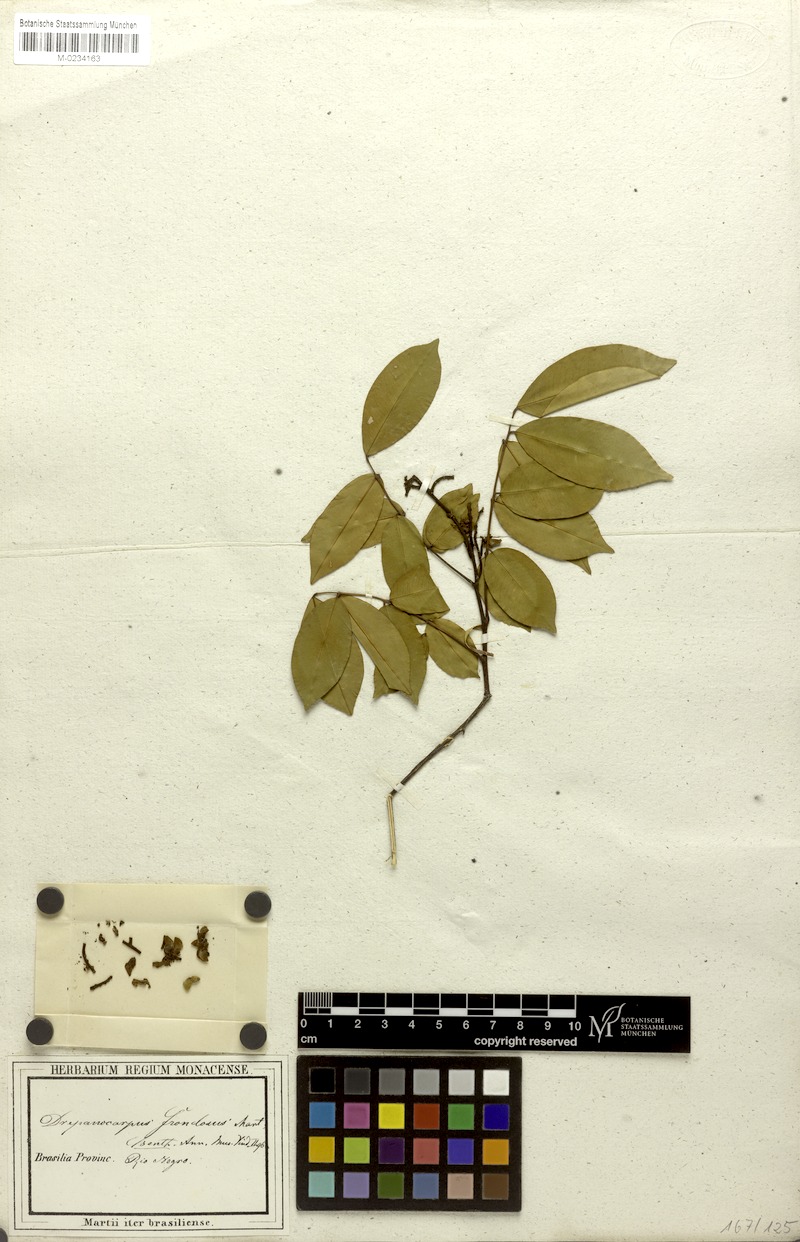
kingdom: Plantae
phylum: Tracheophyta
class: Magnoliopsida
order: Fabales
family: Fabaceae
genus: Machaerium
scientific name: Machaerium leiophyllum
